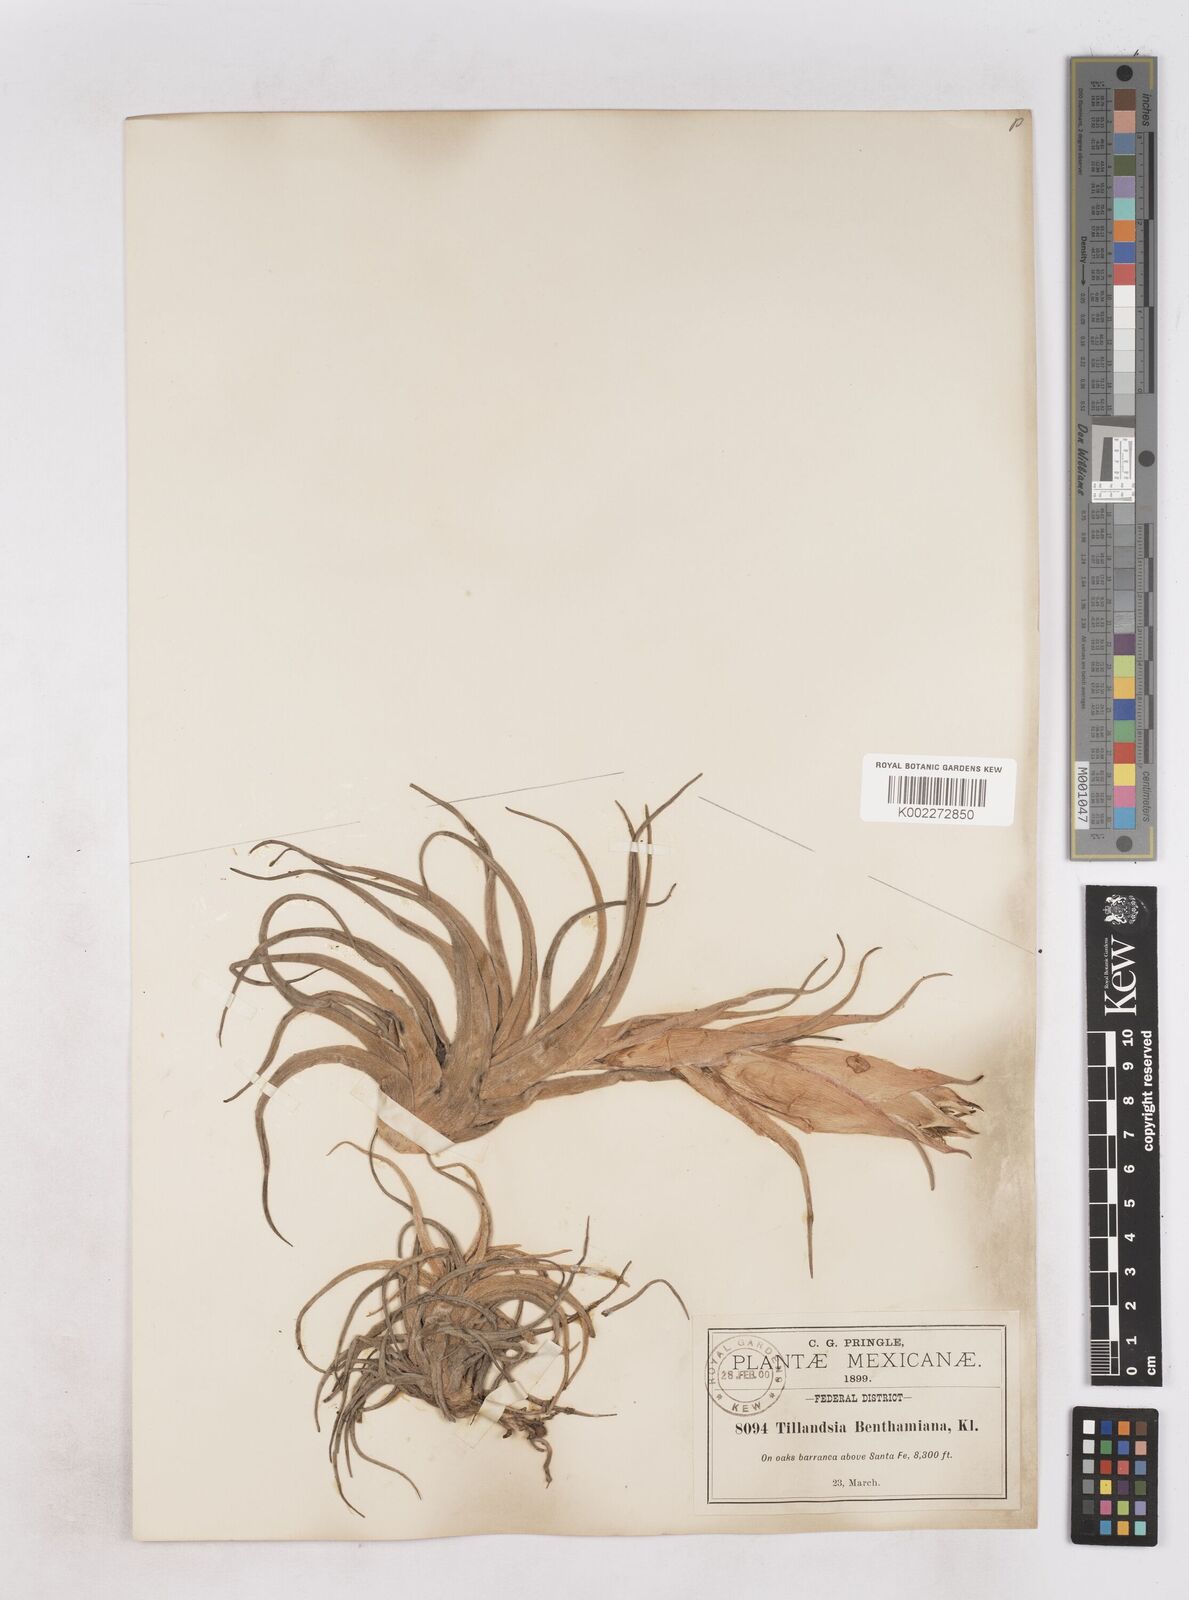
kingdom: Plantae
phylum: Tracheophyta
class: Liliopsida
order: Poales
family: Bromeliaceae
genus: Tillandsia
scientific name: Tillandsia erubescens
